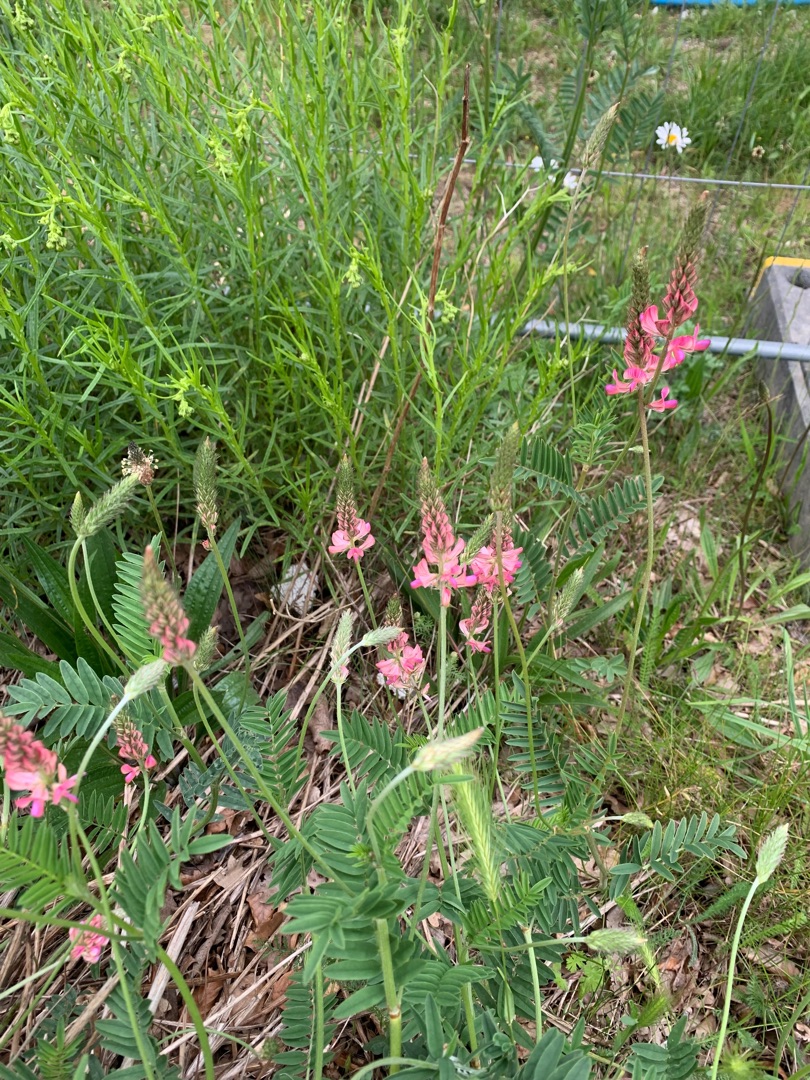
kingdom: Plantae
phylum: Tracheophyta
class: Magnoliopsida
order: Fabales
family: Fabaceae
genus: Onobrychis
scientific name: Onobrychis viciifolia
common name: Esparsette
